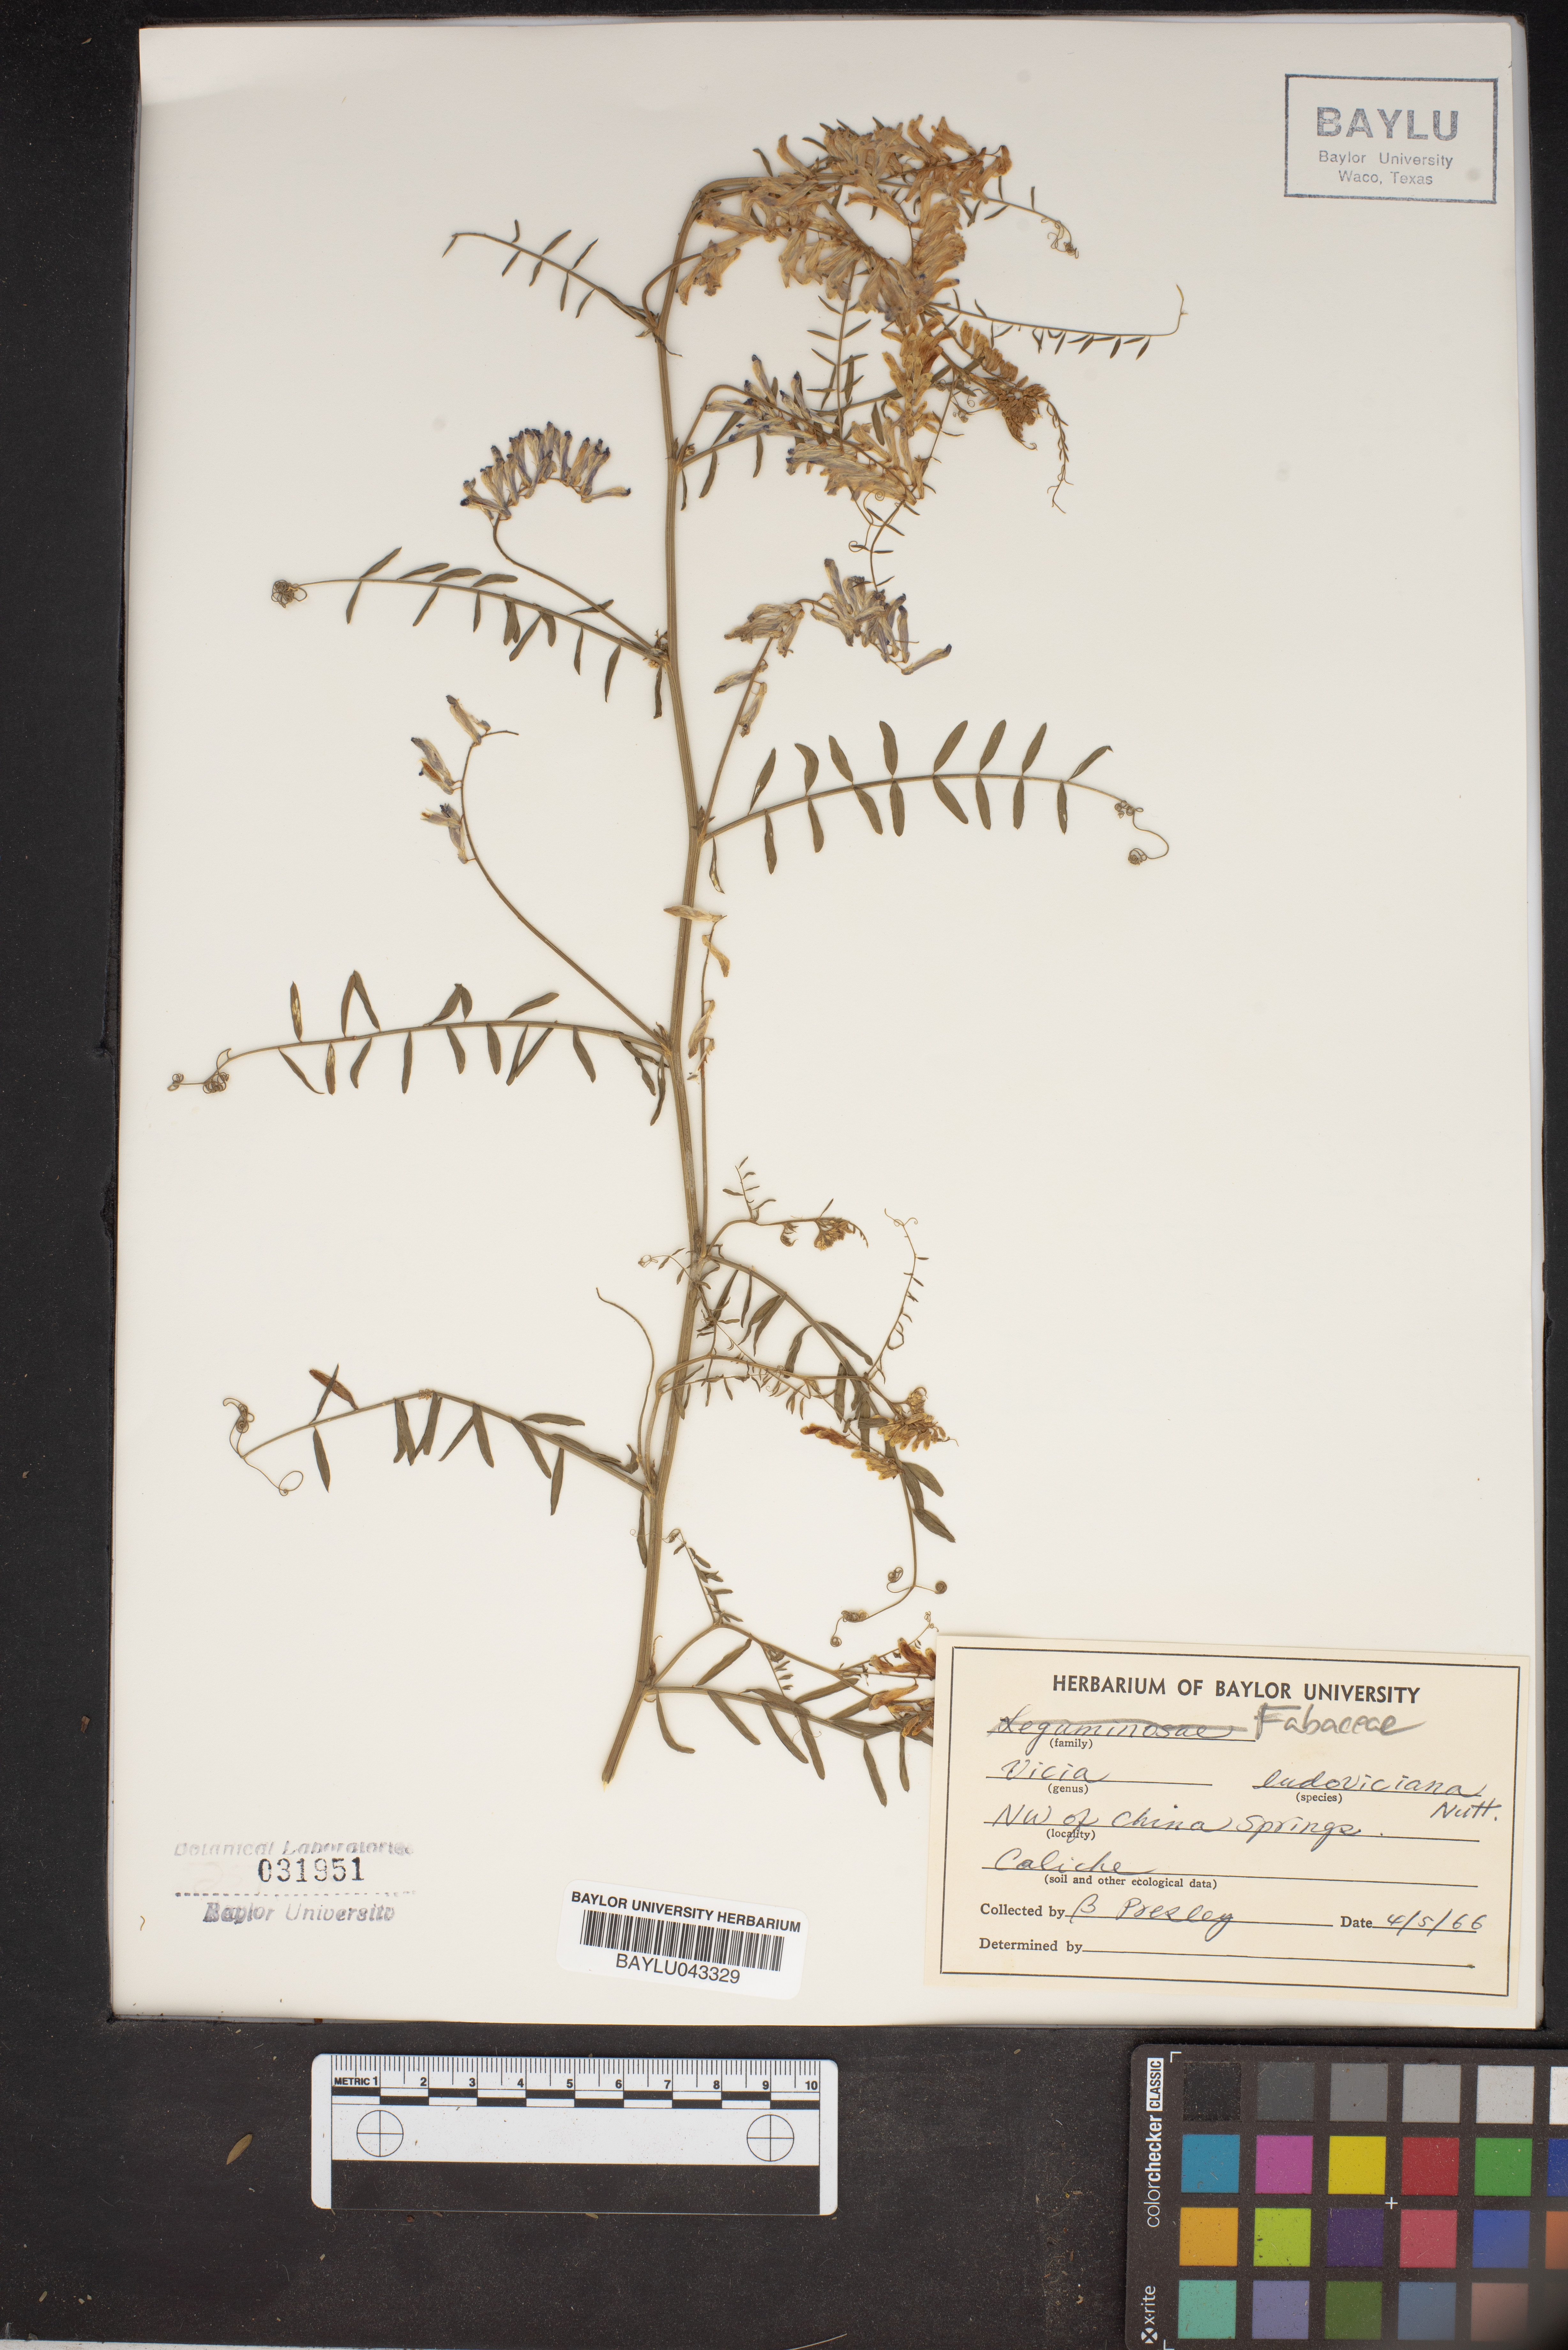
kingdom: Plantae
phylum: Tracheophyta
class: Magnoliopsida
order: Fabales
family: Fabaceae
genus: Vicia
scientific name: Vicia ludoviciana
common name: Louisiana vetch
